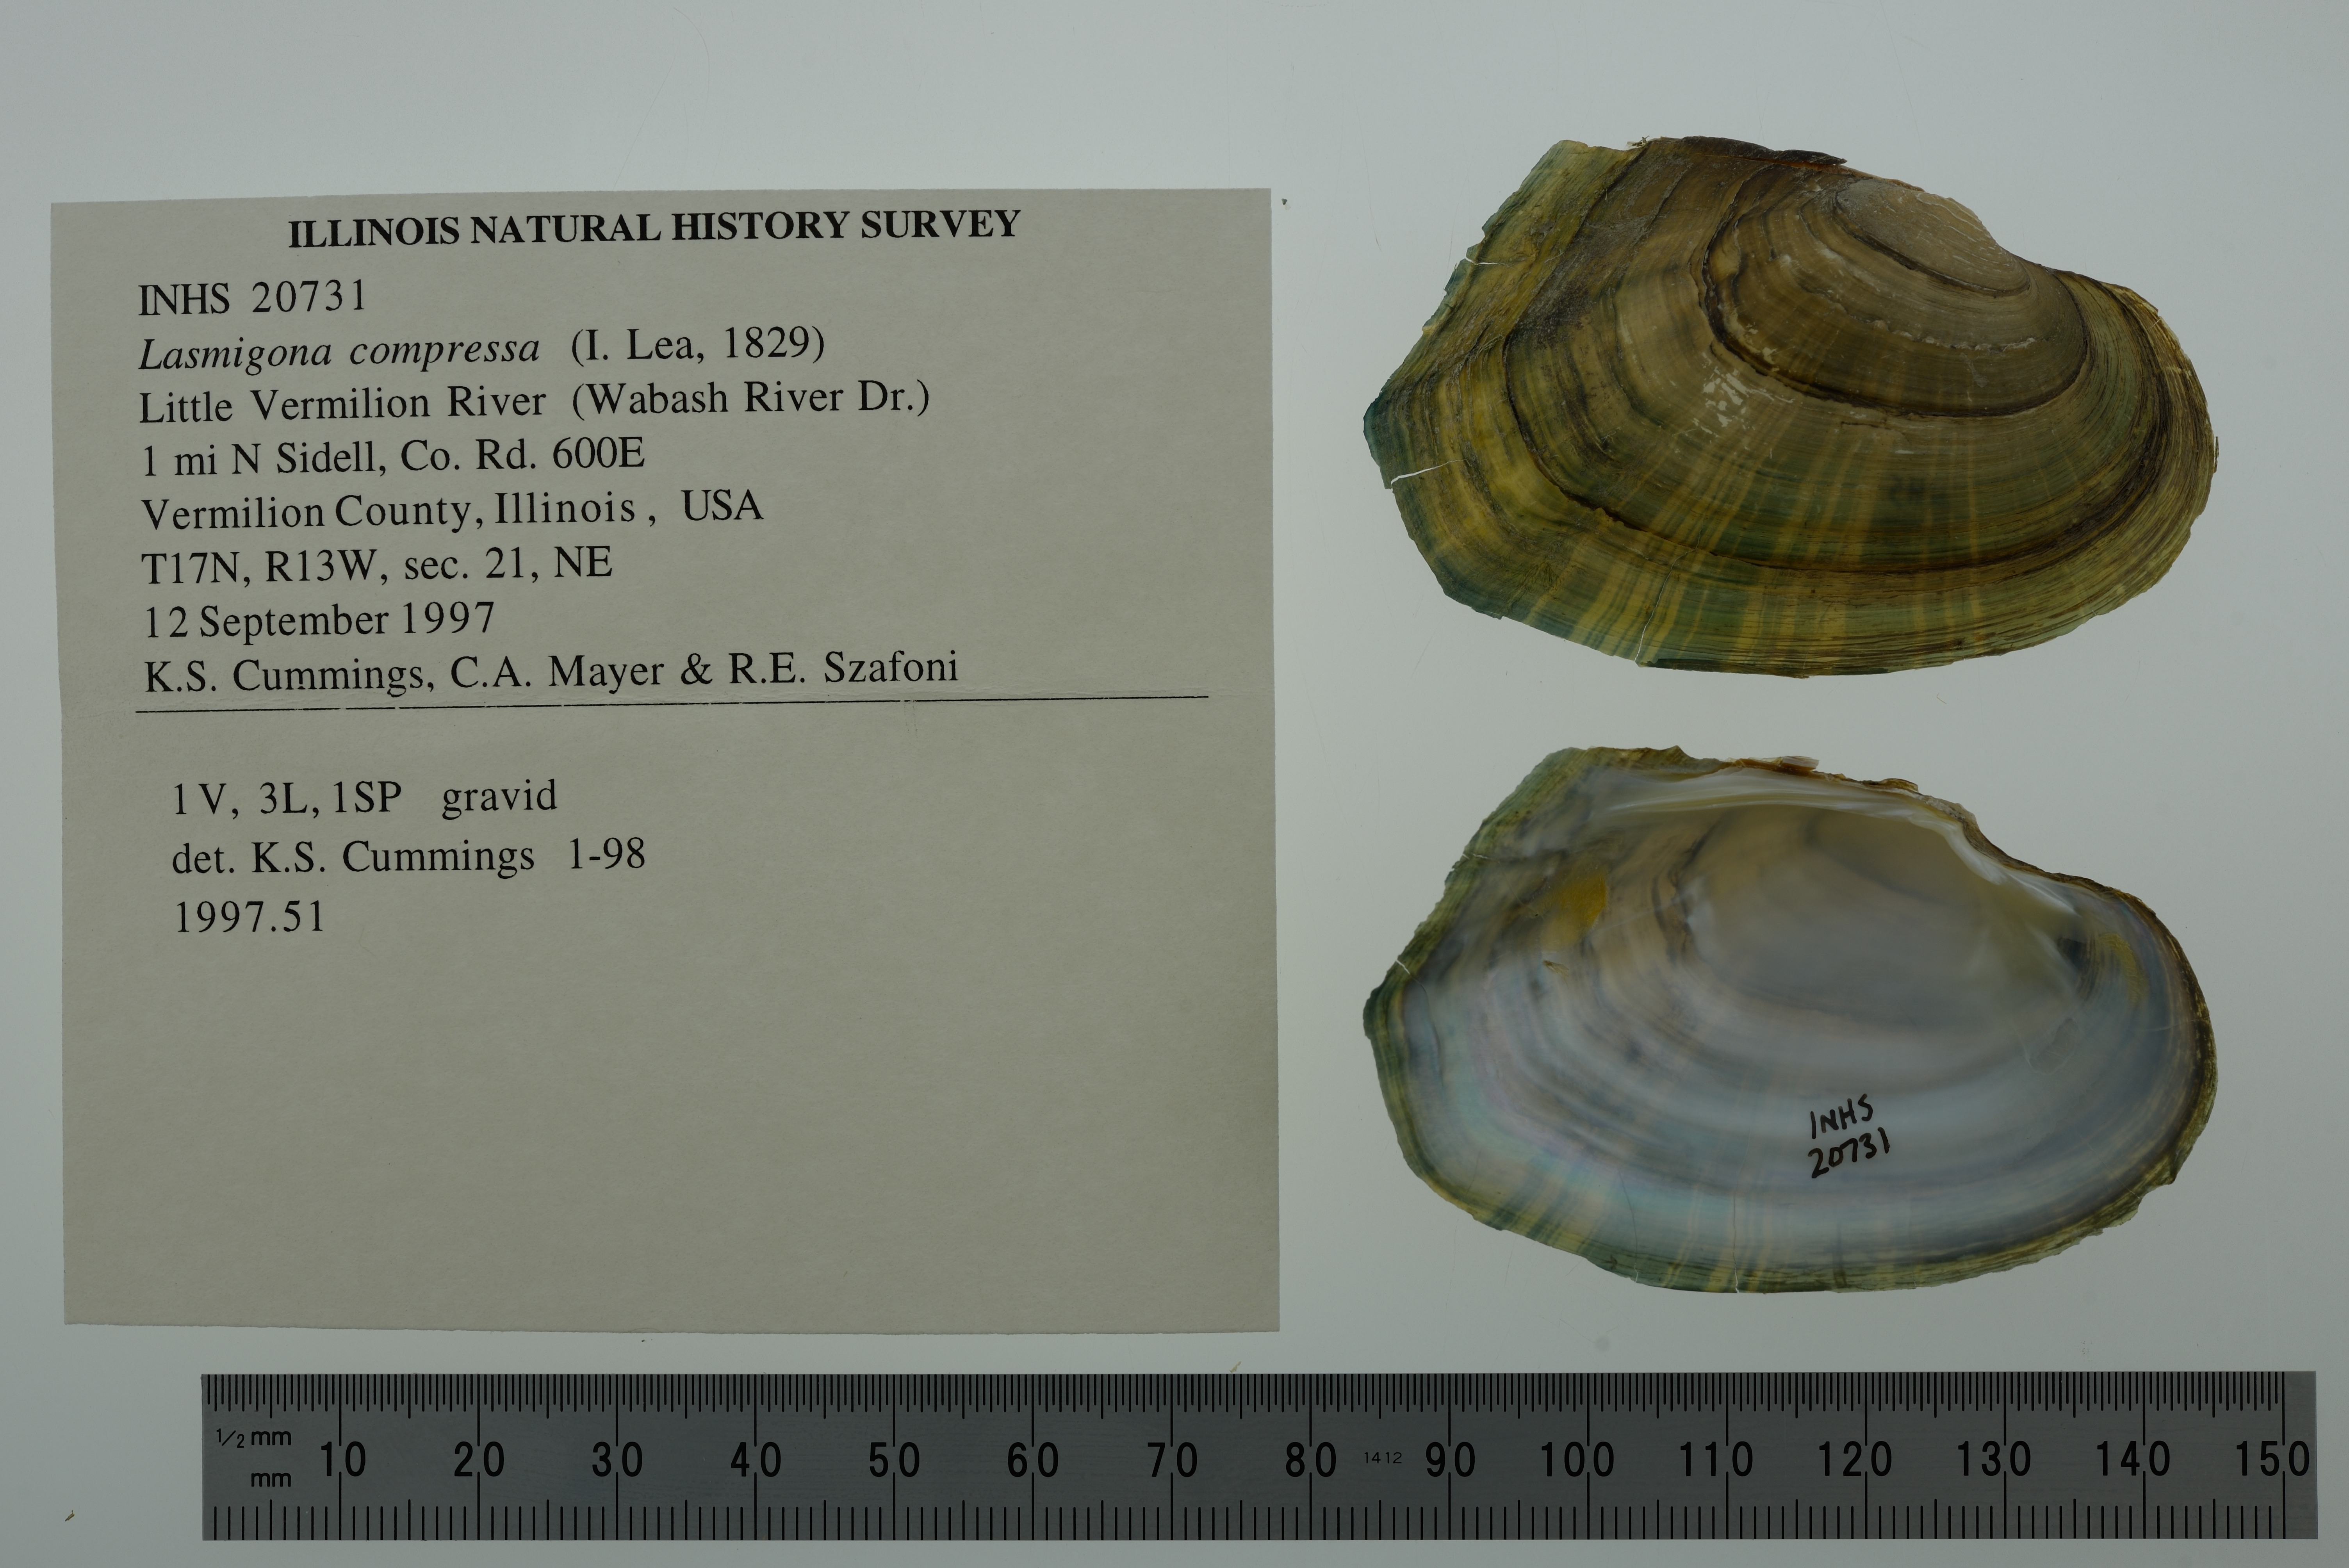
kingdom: Animalia
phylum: Mollusca
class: Bivalvia
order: Unionida
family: Unionidae
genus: Lasmigona
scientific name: Lasmigona compressa
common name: Creek heelsplitter
